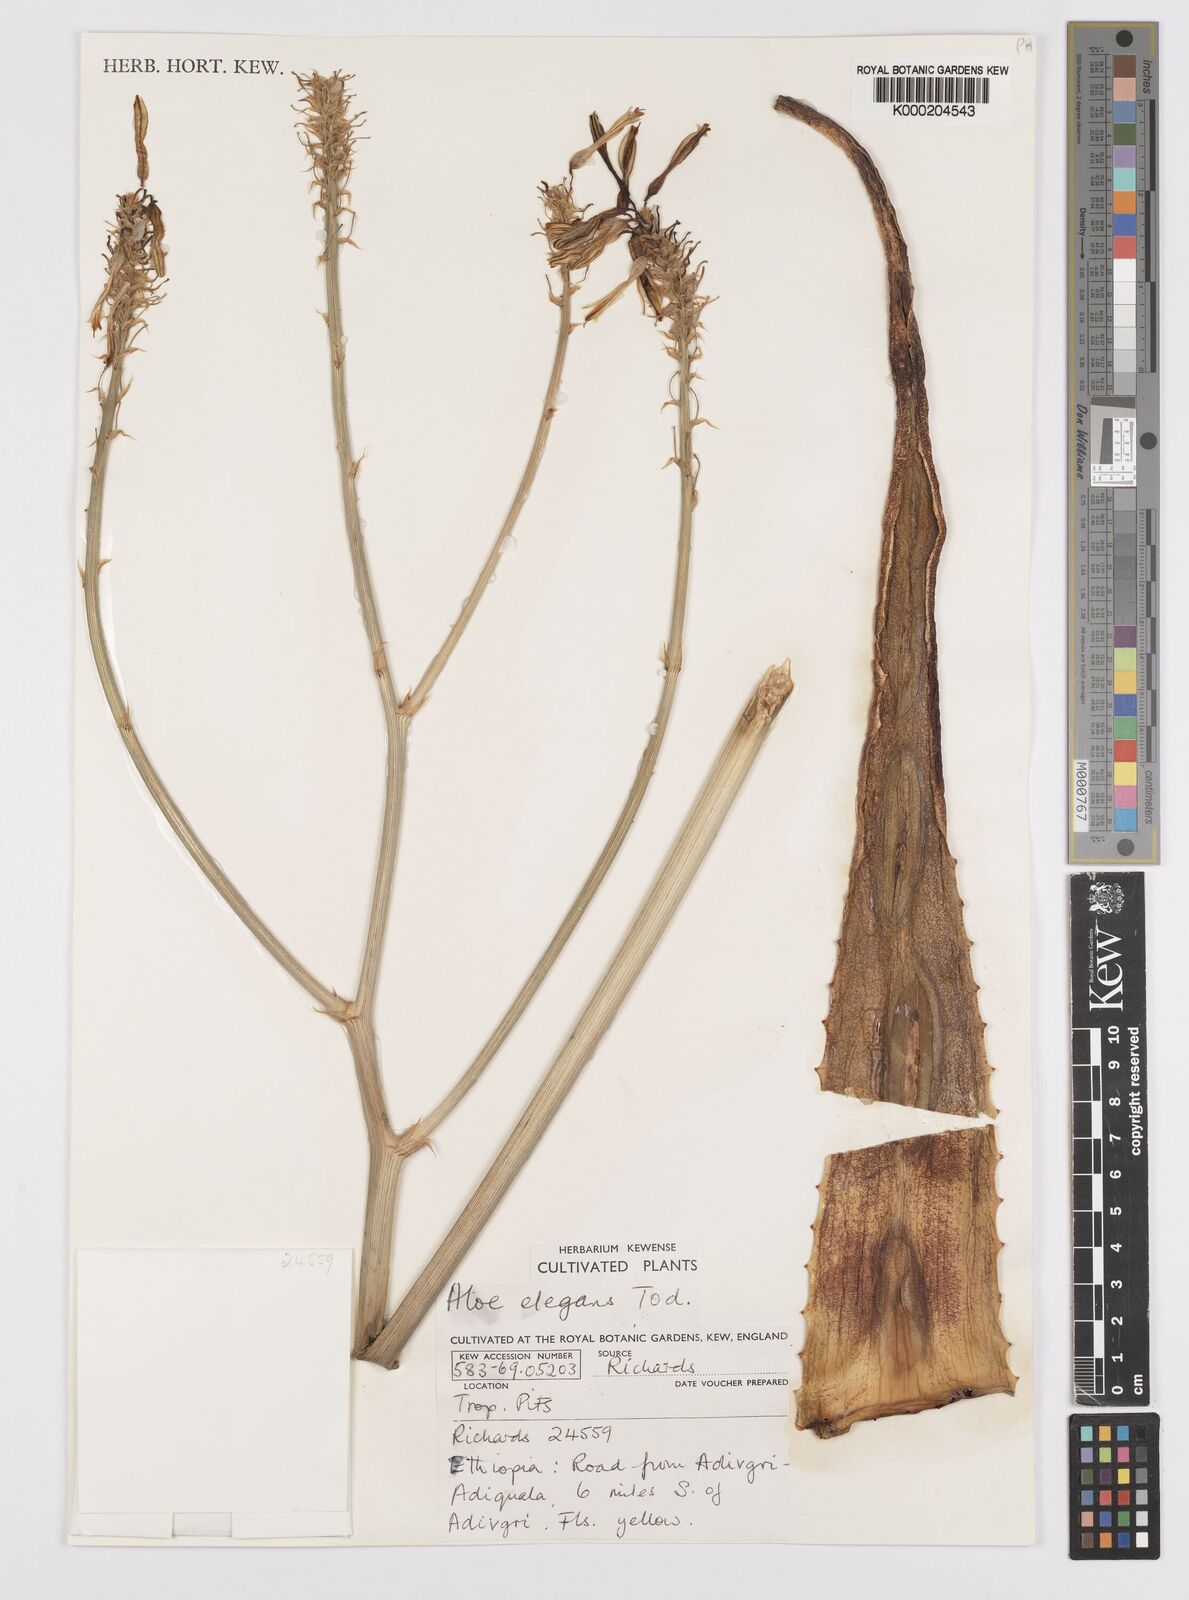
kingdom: Plantae
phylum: Tracheophyta
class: Liliopsida
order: Asparagales
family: Asphodelaceae
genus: Aloe
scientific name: Aloe elegans
